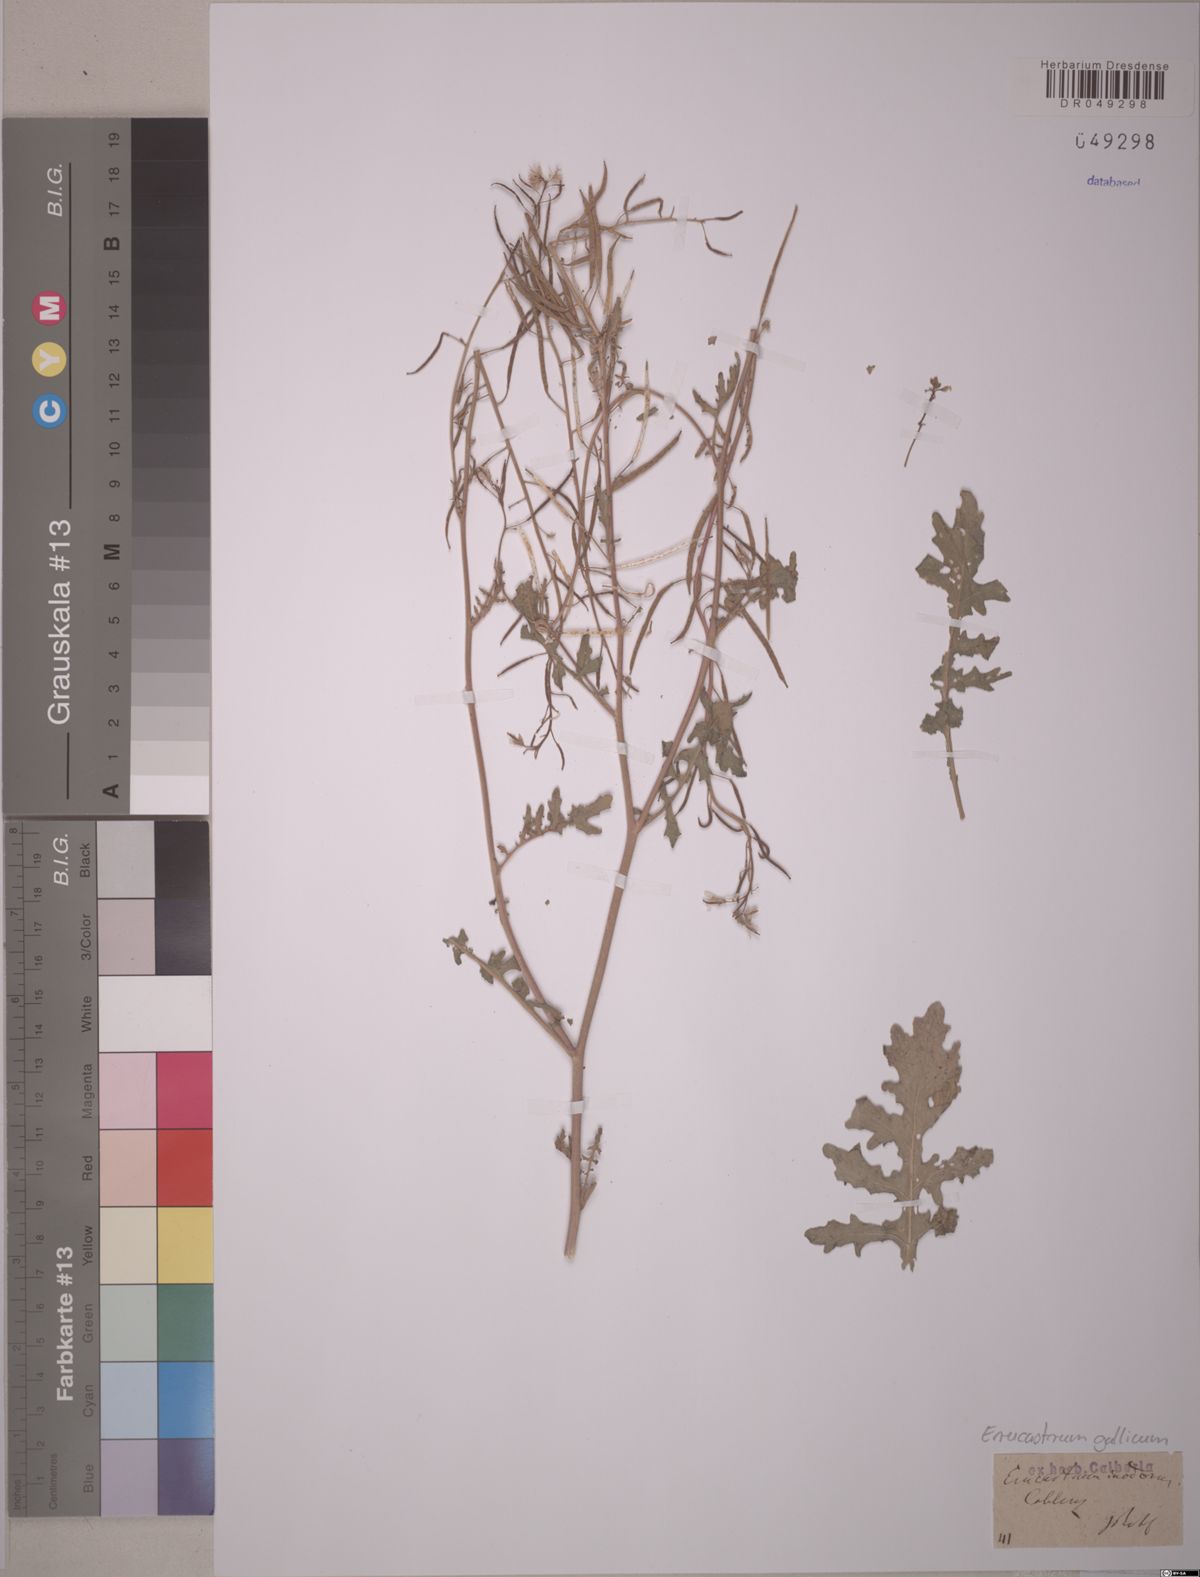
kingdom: Plantae
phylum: Tracheophyta
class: Magnoliopsida
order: Brassicales
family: Brassicaceae
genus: Erucastrum
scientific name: Erucastrum gallicum
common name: Hairy rocket
